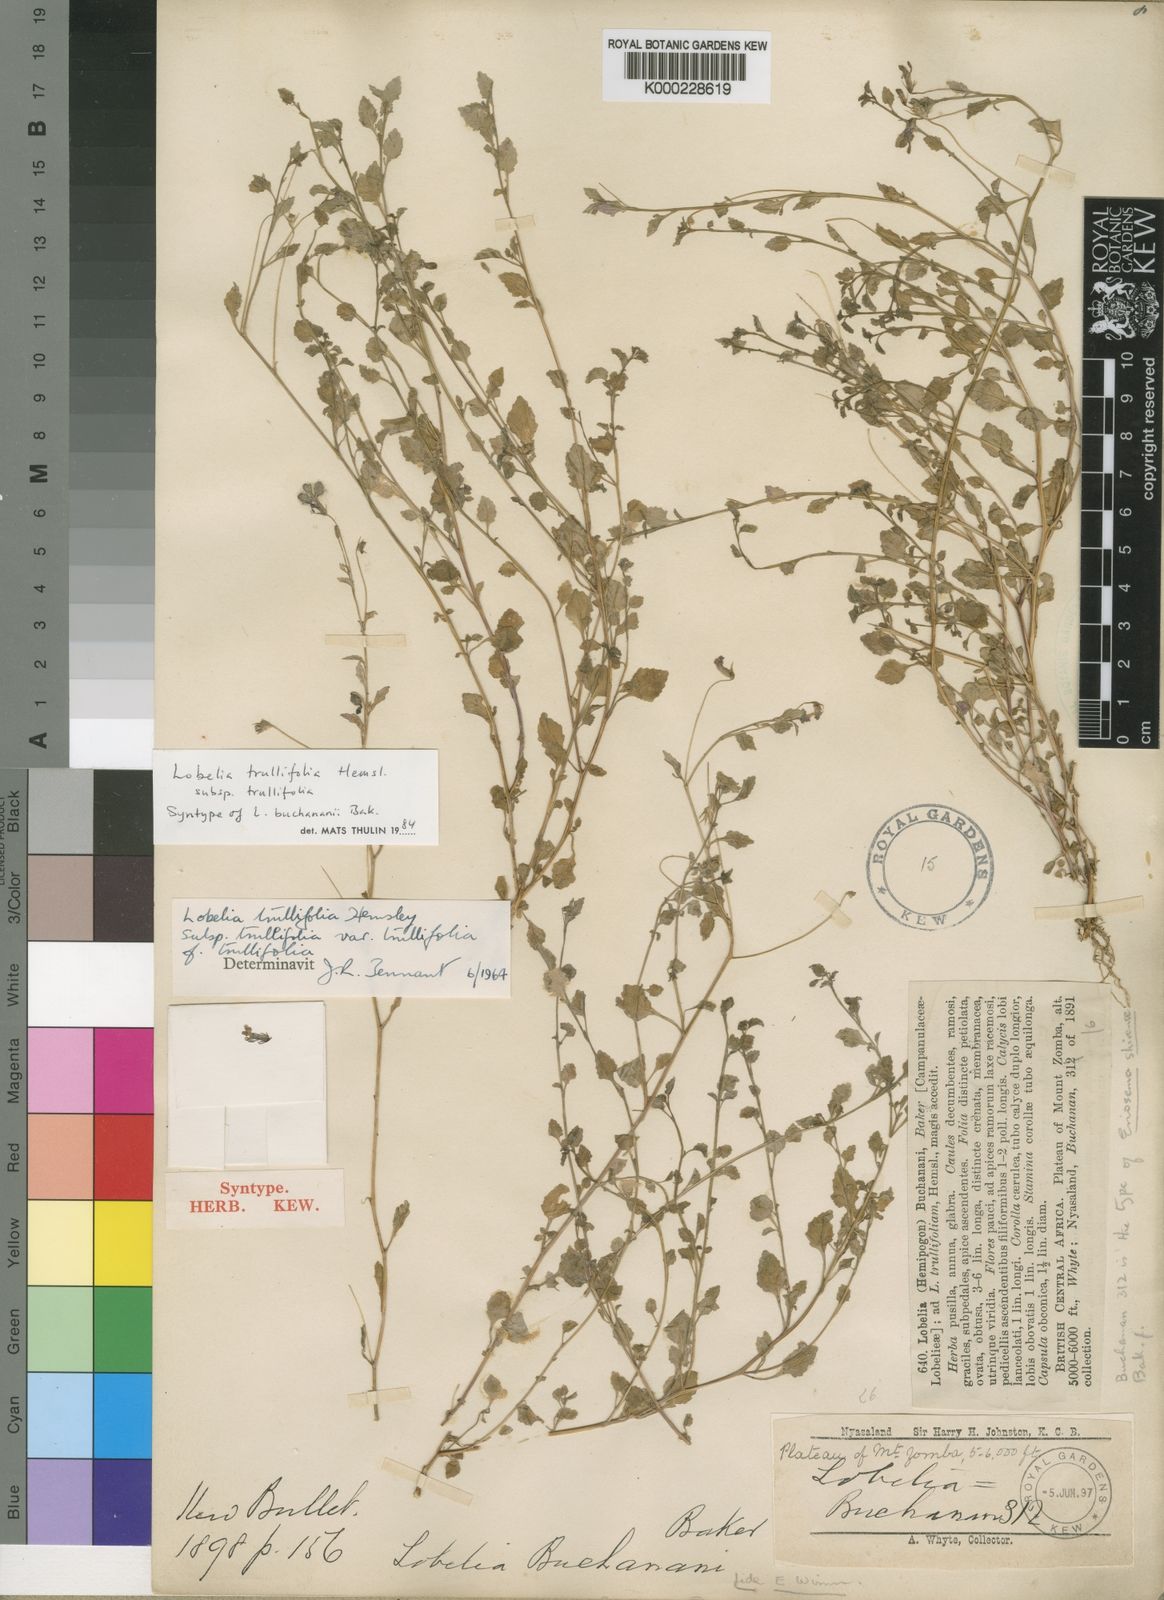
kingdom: Plantae
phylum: Tracheophyta
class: Magnoliopsida
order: Asterales
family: Campanulaceae
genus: Lobelia
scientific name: Lobelia trullifolia
